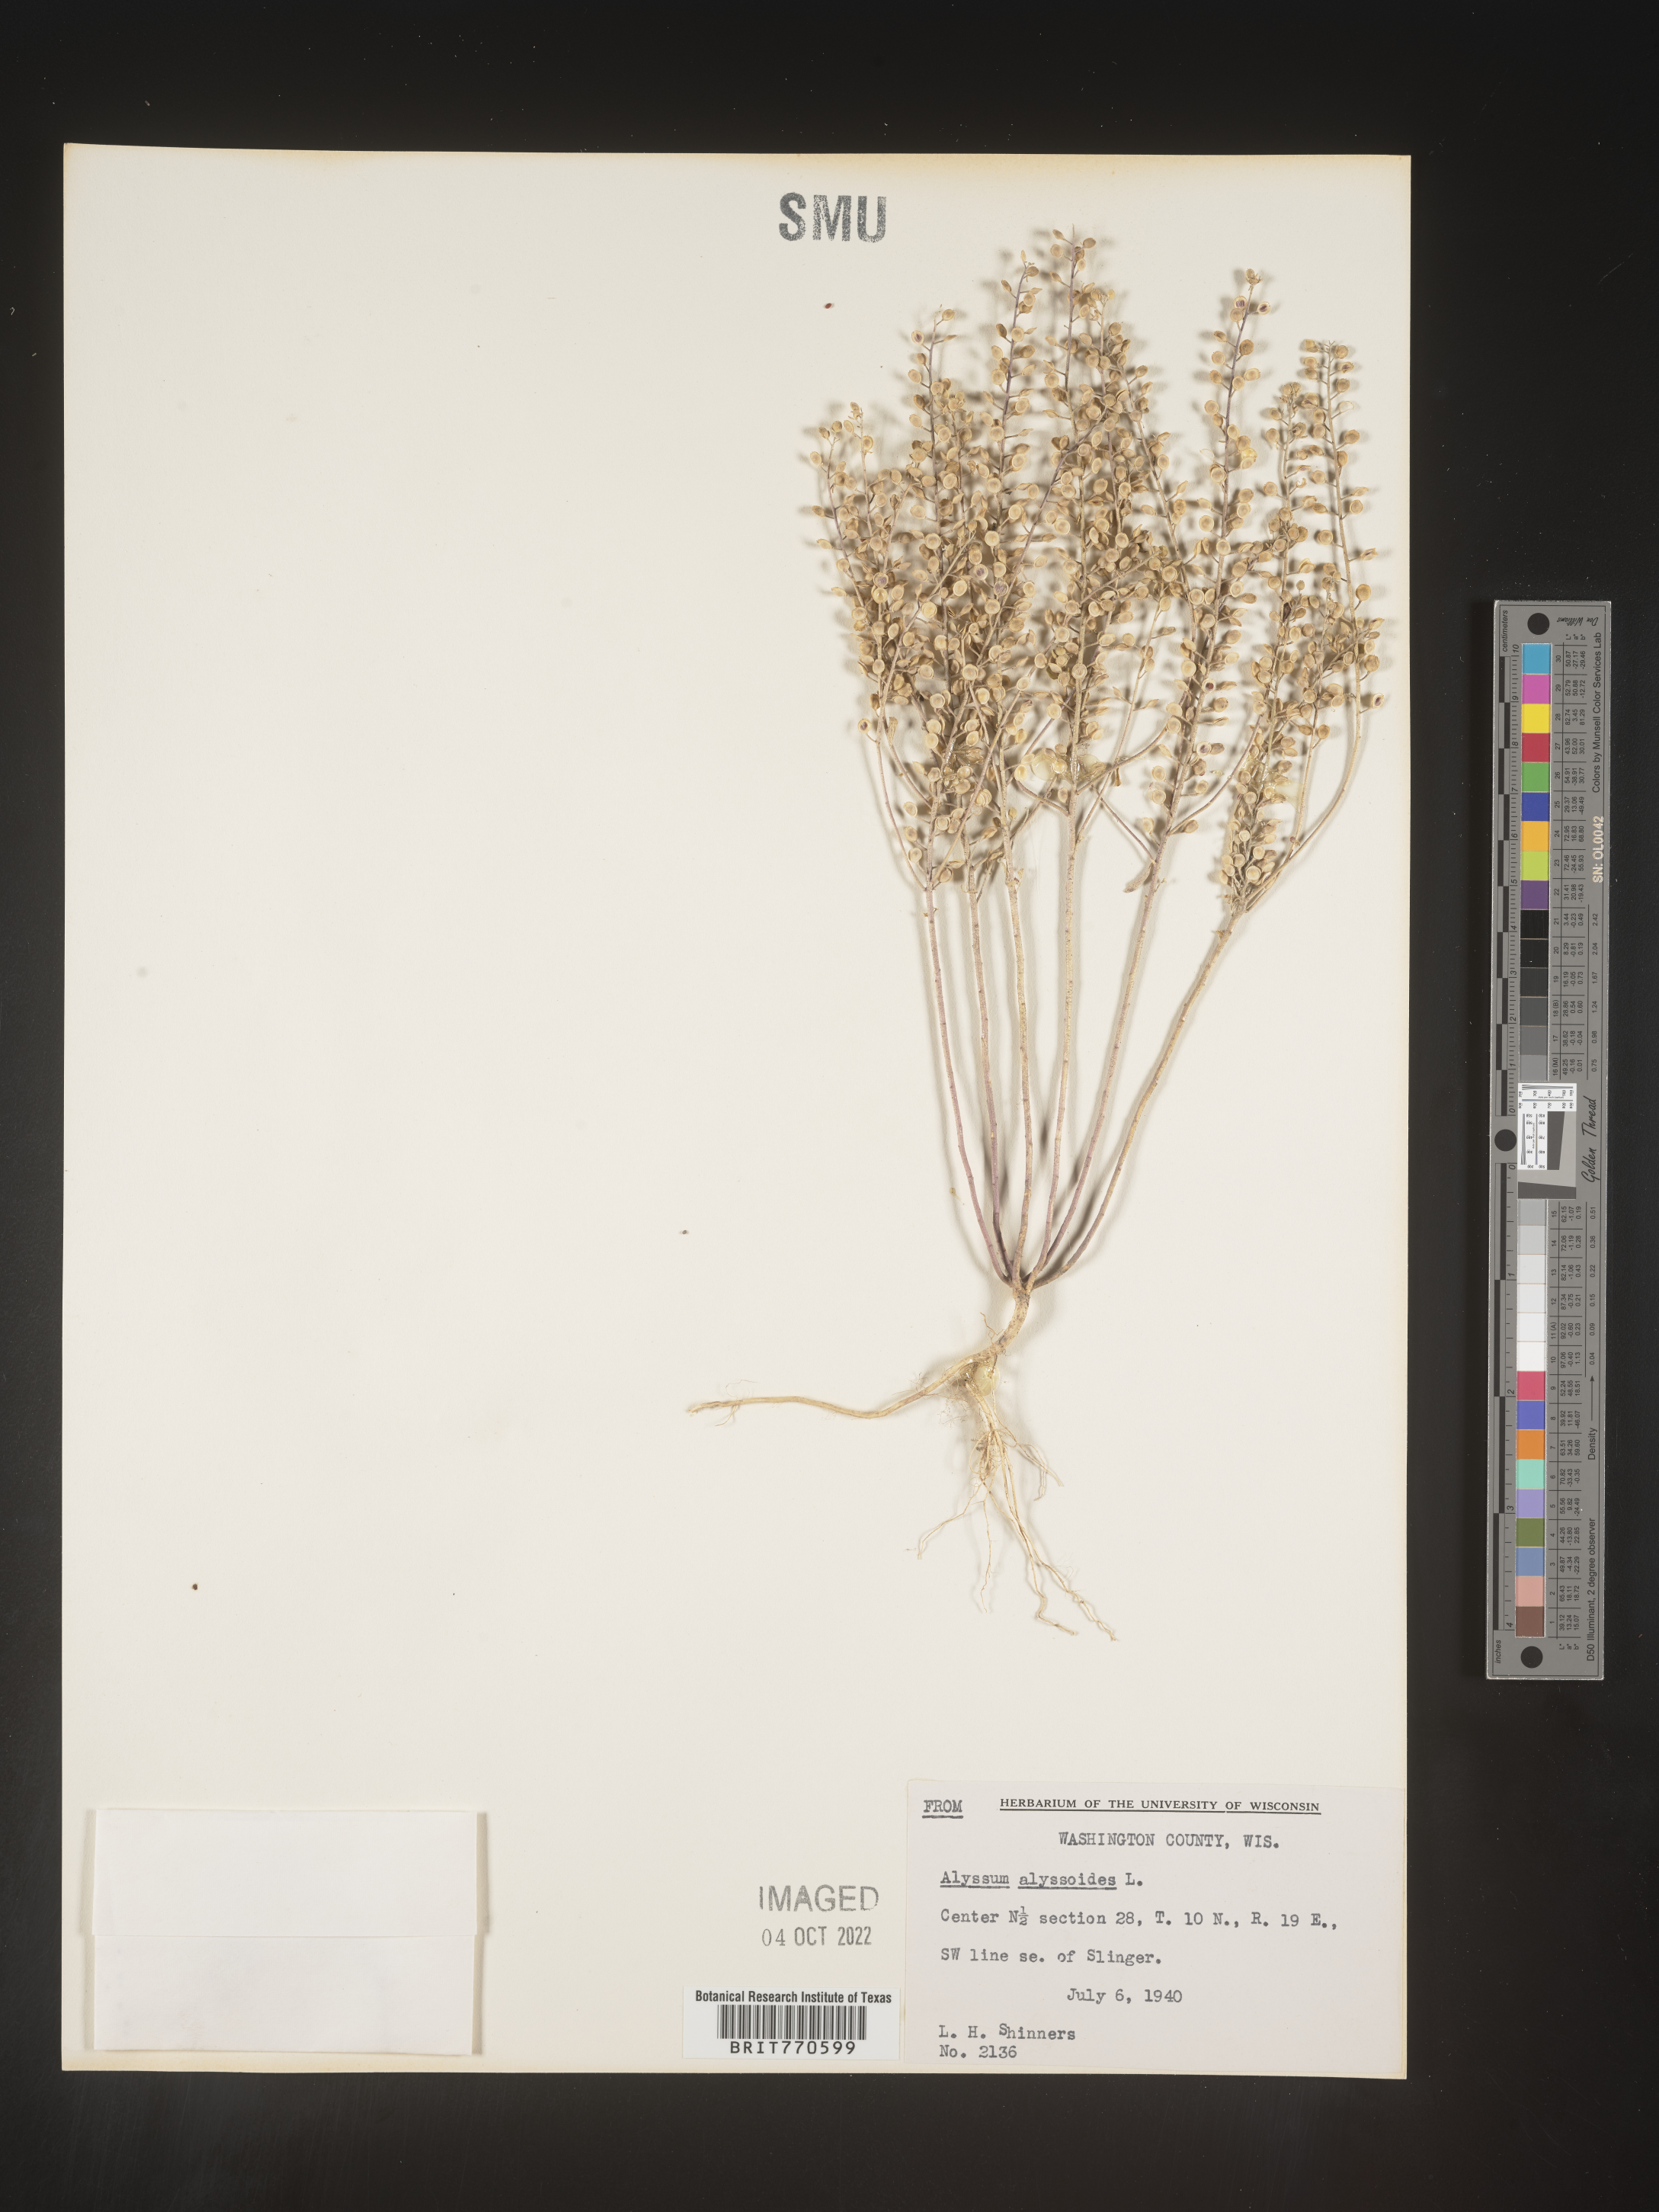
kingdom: Plantae
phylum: Tracheophyta
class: Magnoliopsida
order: Brassicales
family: Brassicaceae
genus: Alyssum
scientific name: Alyssum alyssoides
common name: Small alison
